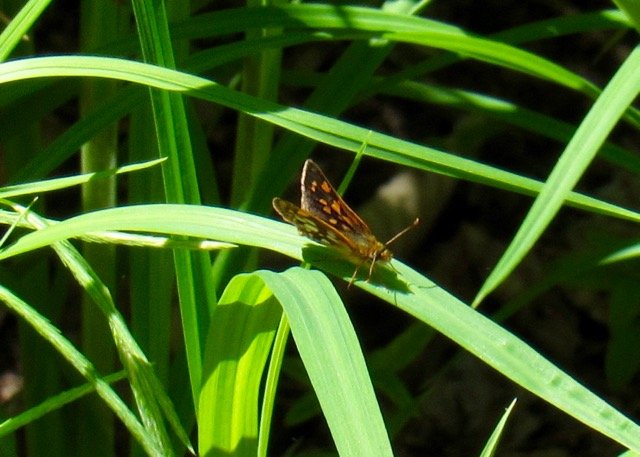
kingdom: Animalia
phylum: Arthropoda
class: Insecta
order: Lepidoptera
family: Hesperiidae
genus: Carterocephalus
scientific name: Carterocephalus palaemon
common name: Chequered Skipper
